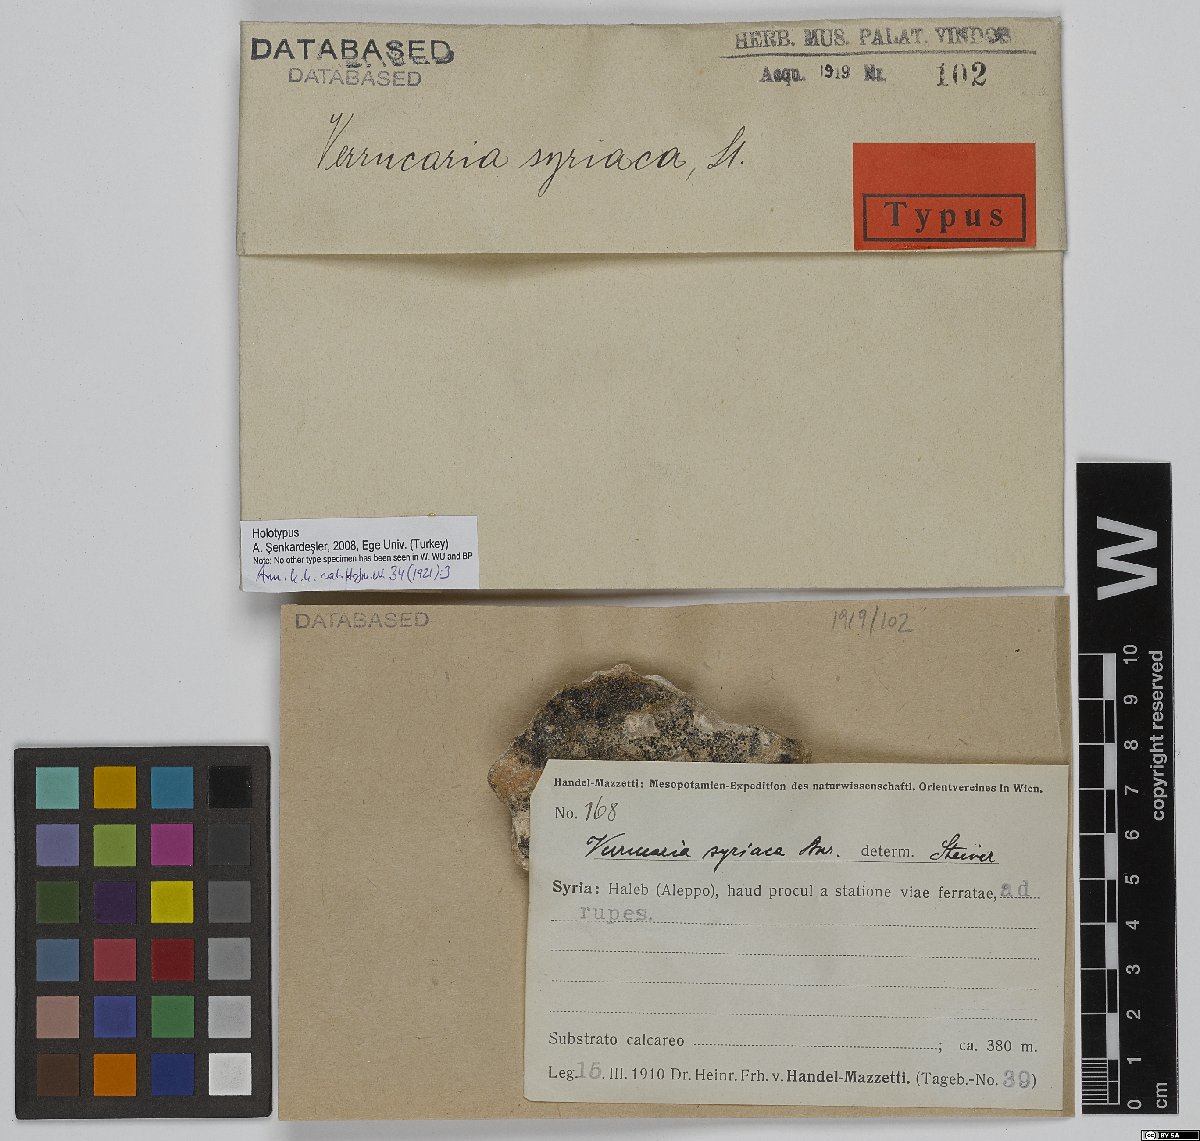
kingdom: Fungi
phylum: Ascomycota
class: Eurotiomycetes
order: Verrucariales
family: Verrucariaceae
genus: Verrucaria
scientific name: Verrucaria
